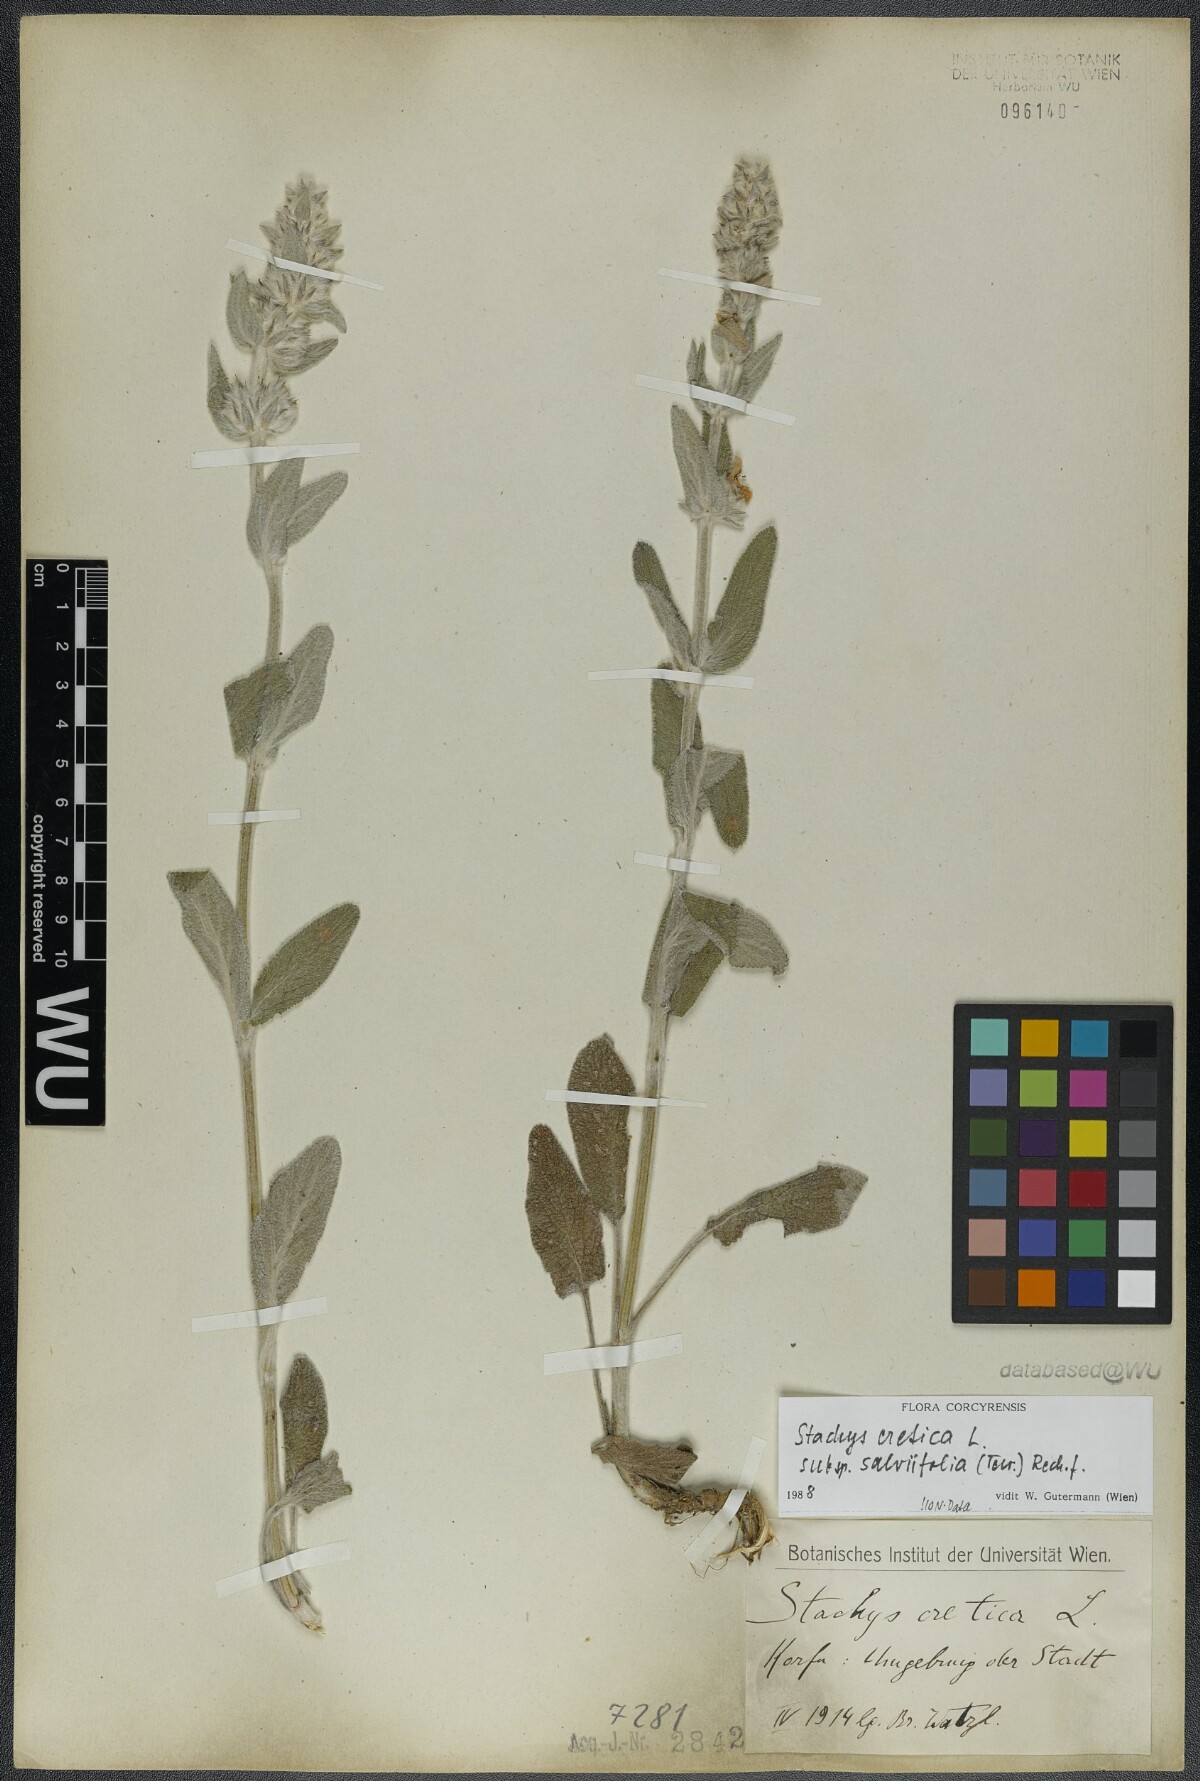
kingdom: Plantae
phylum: Tracheophyta
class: Magnoliopsida
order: Lamiales
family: Lamiaceae
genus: Stachys
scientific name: Stachys cretica
